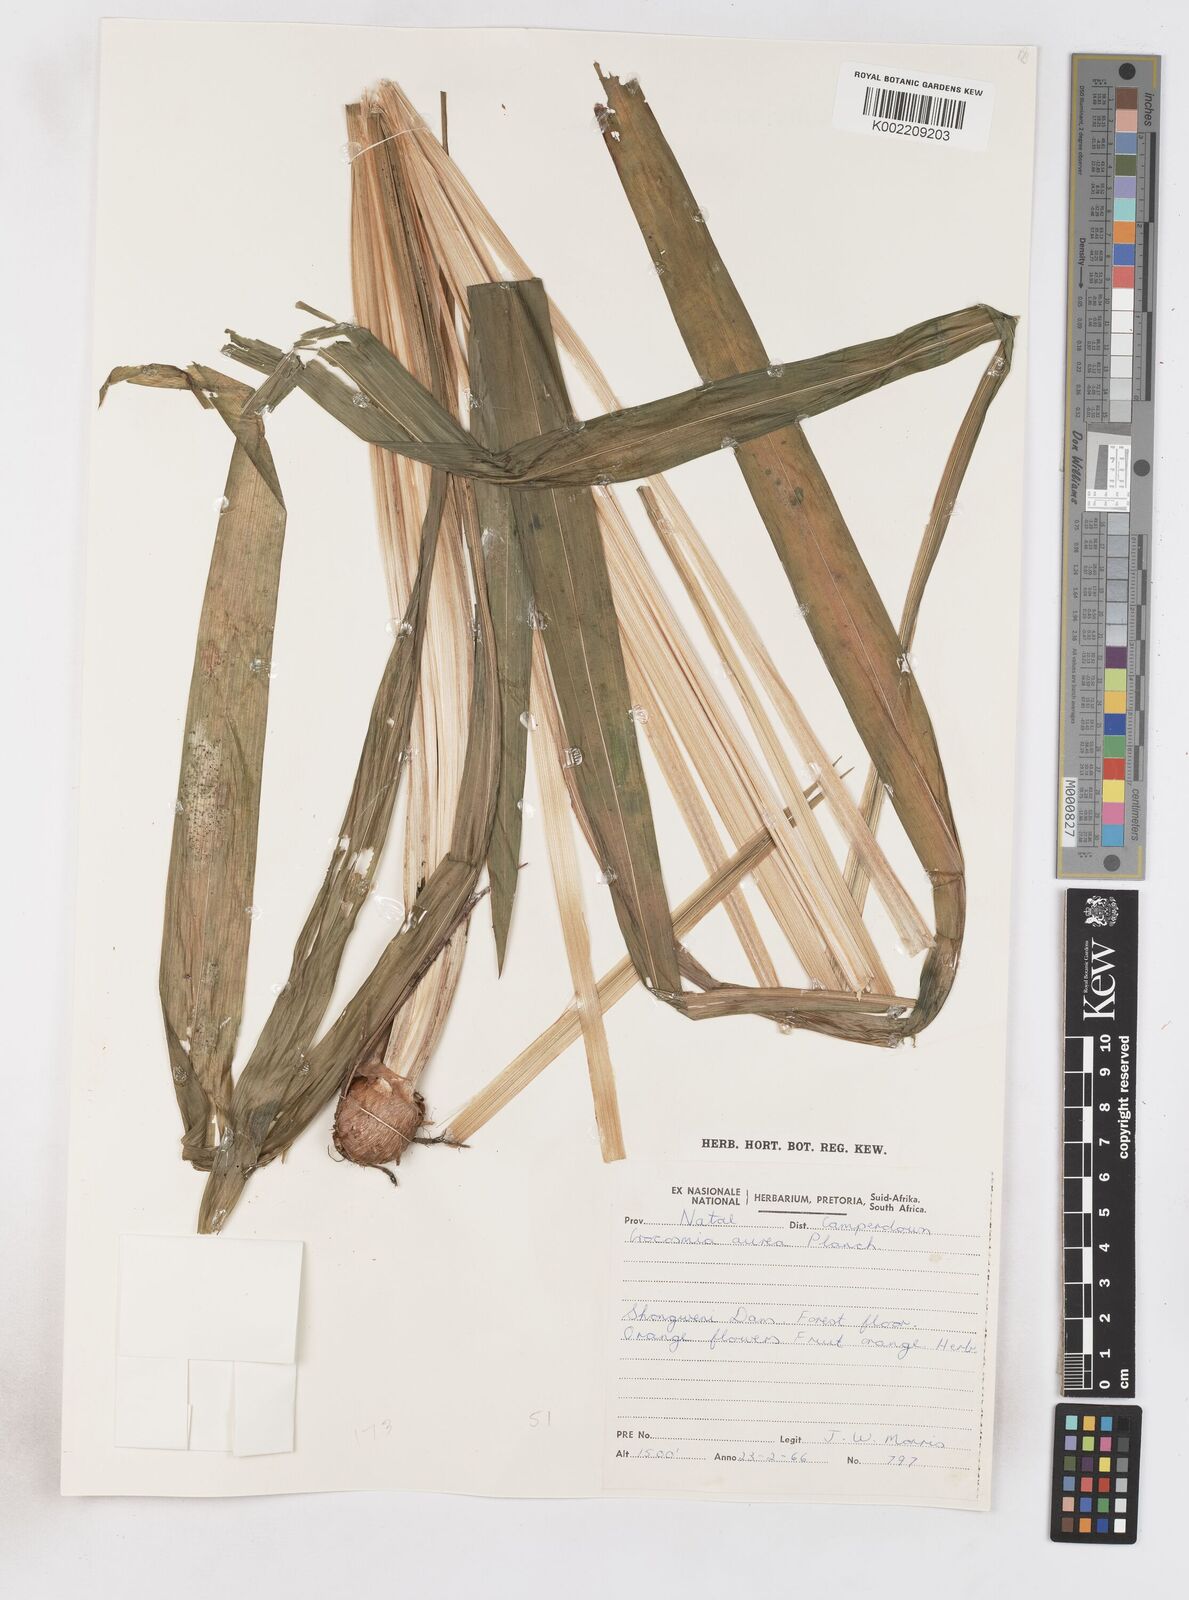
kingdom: Plantae
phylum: Tracheophyta
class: Liliopsida
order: Asparagales
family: Iridaceae
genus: Crocosmia
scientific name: Crocosmia aurea
